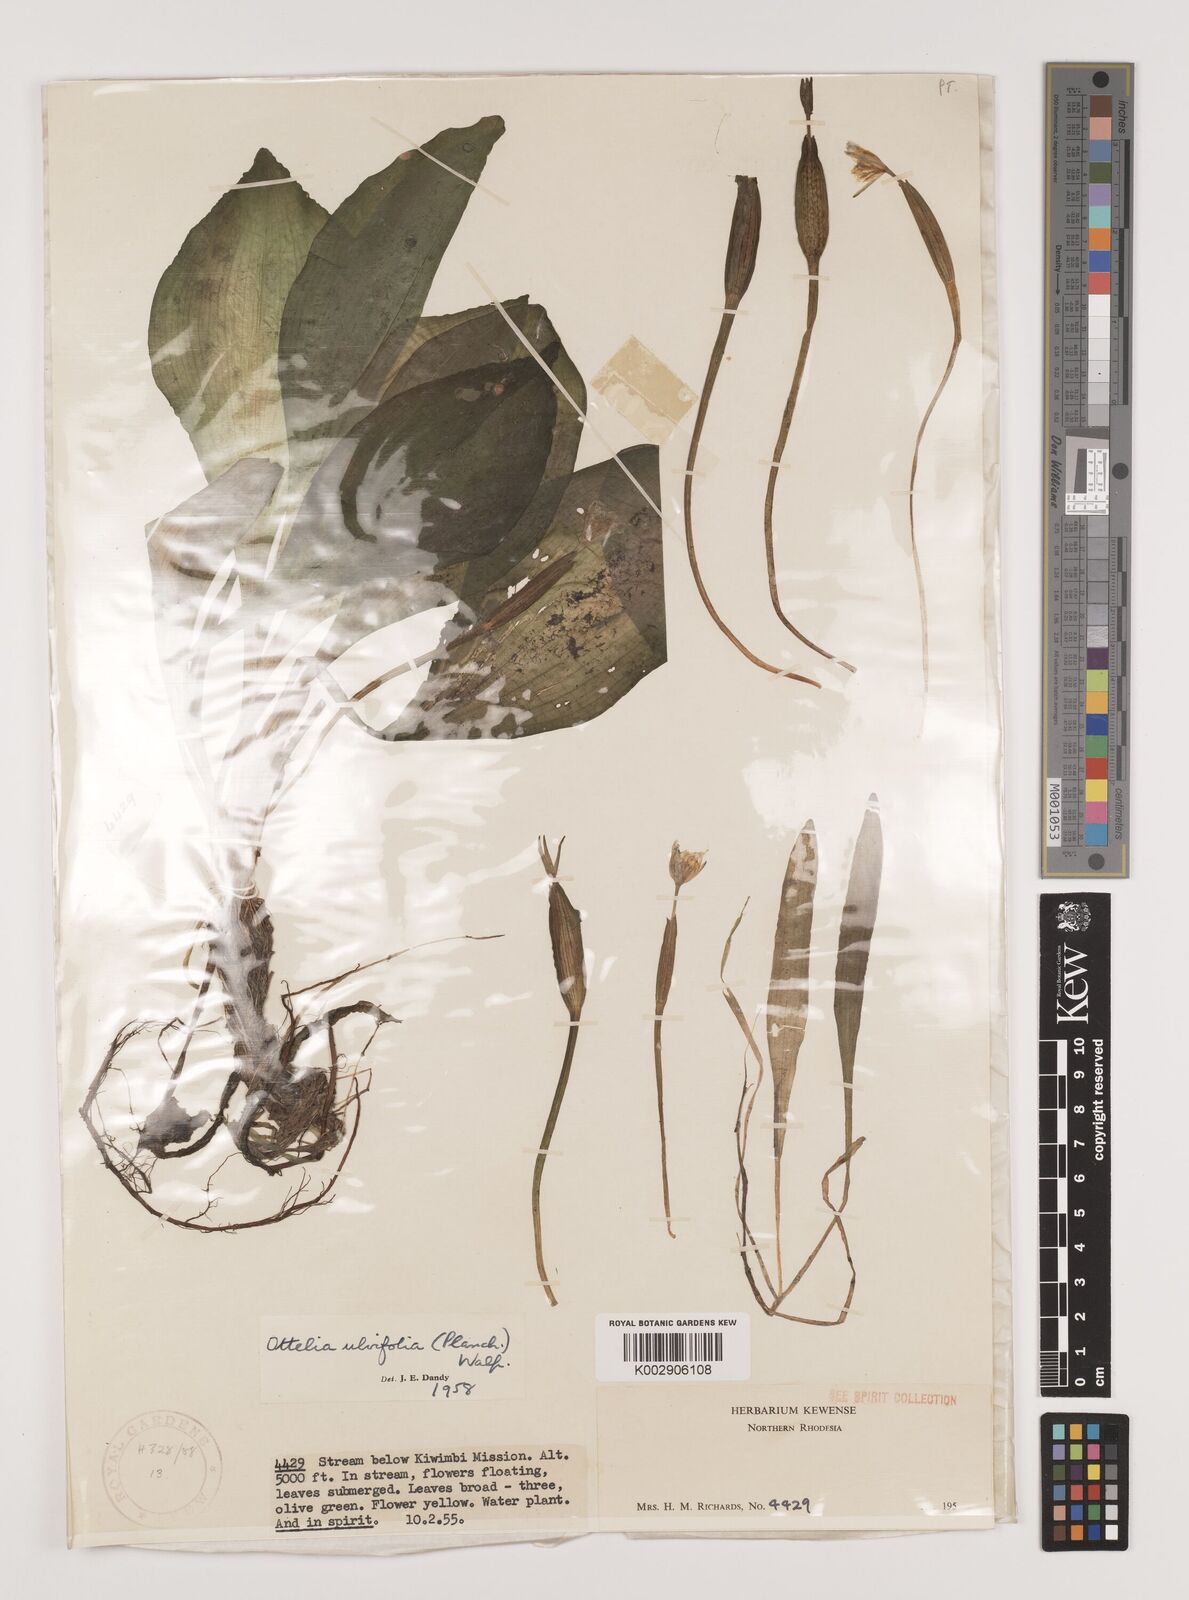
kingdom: Plantae
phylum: Tracheophyta
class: Liliopsida
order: Alismatales
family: Hydrocharitaceae
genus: Ottelia
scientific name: Ottelia ulvifolia
